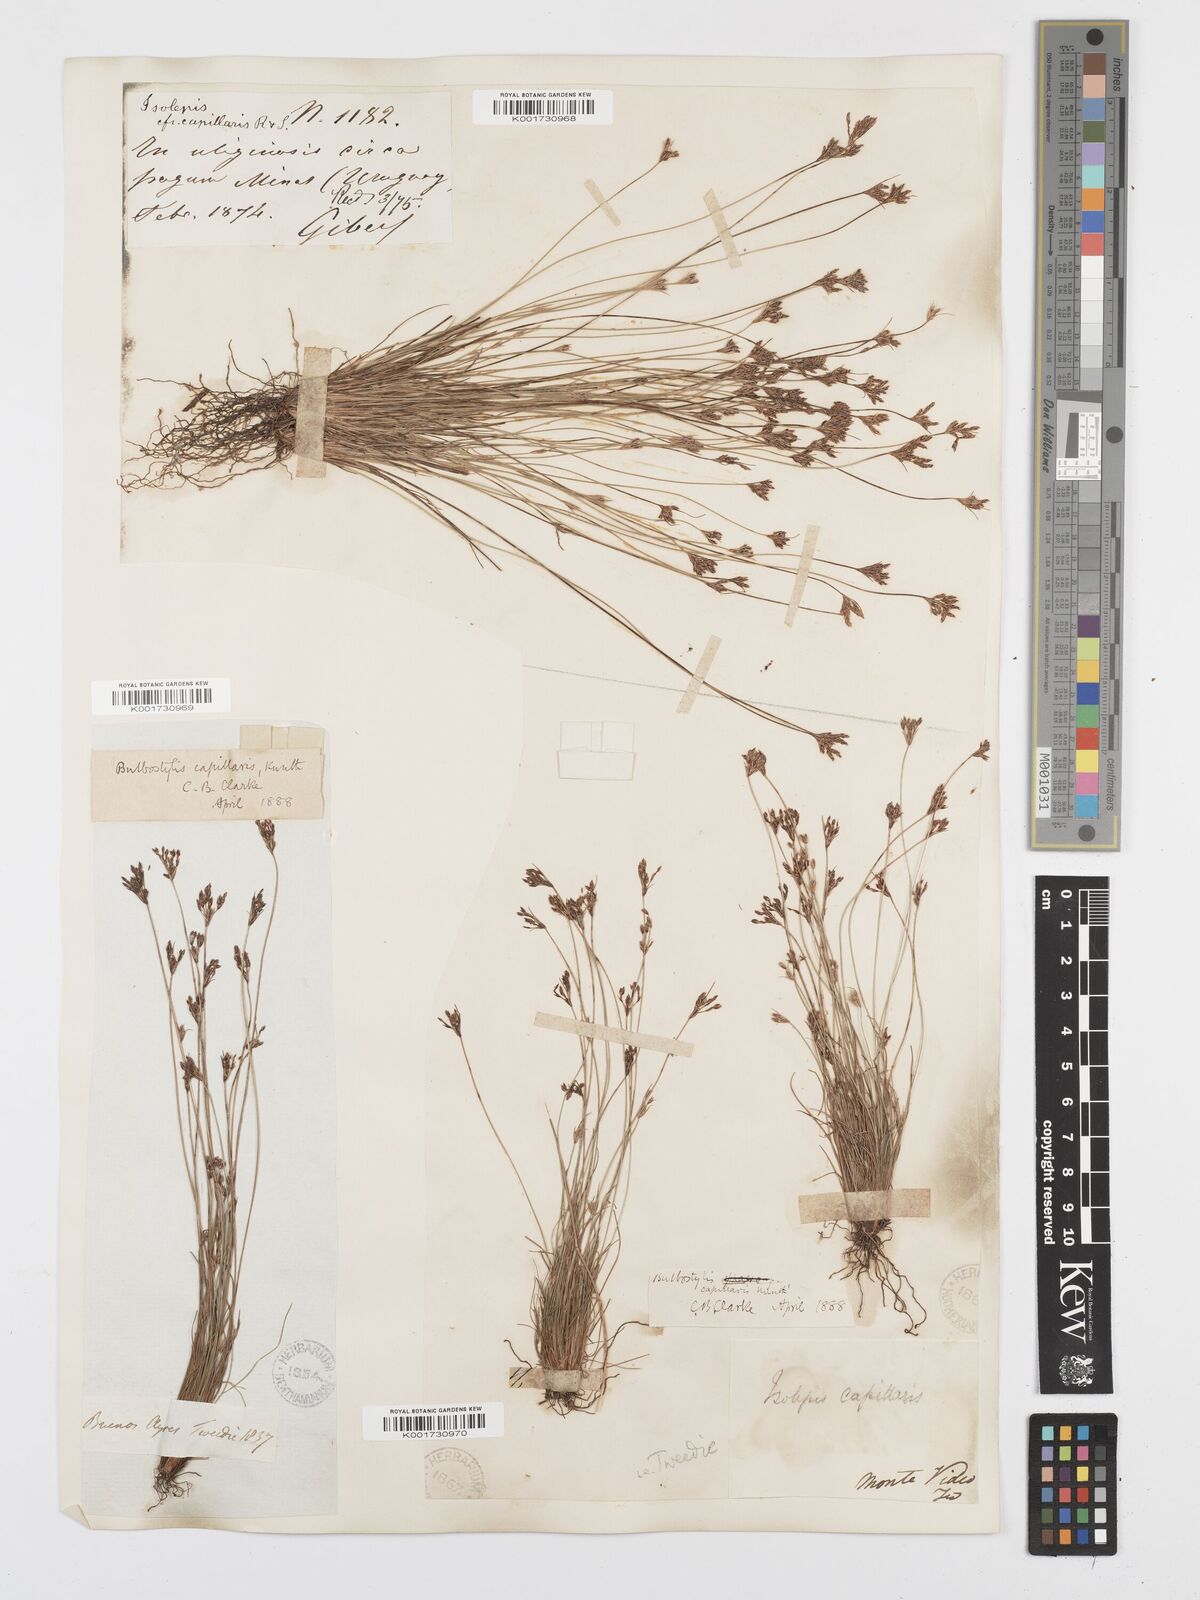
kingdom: Plantae
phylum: Tracheophyta
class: Liliopsida
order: Poales
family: Cyperaceae
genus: Bulbostylis
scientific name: Bulbostylis capillaris
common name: Densetuft hairsedge
